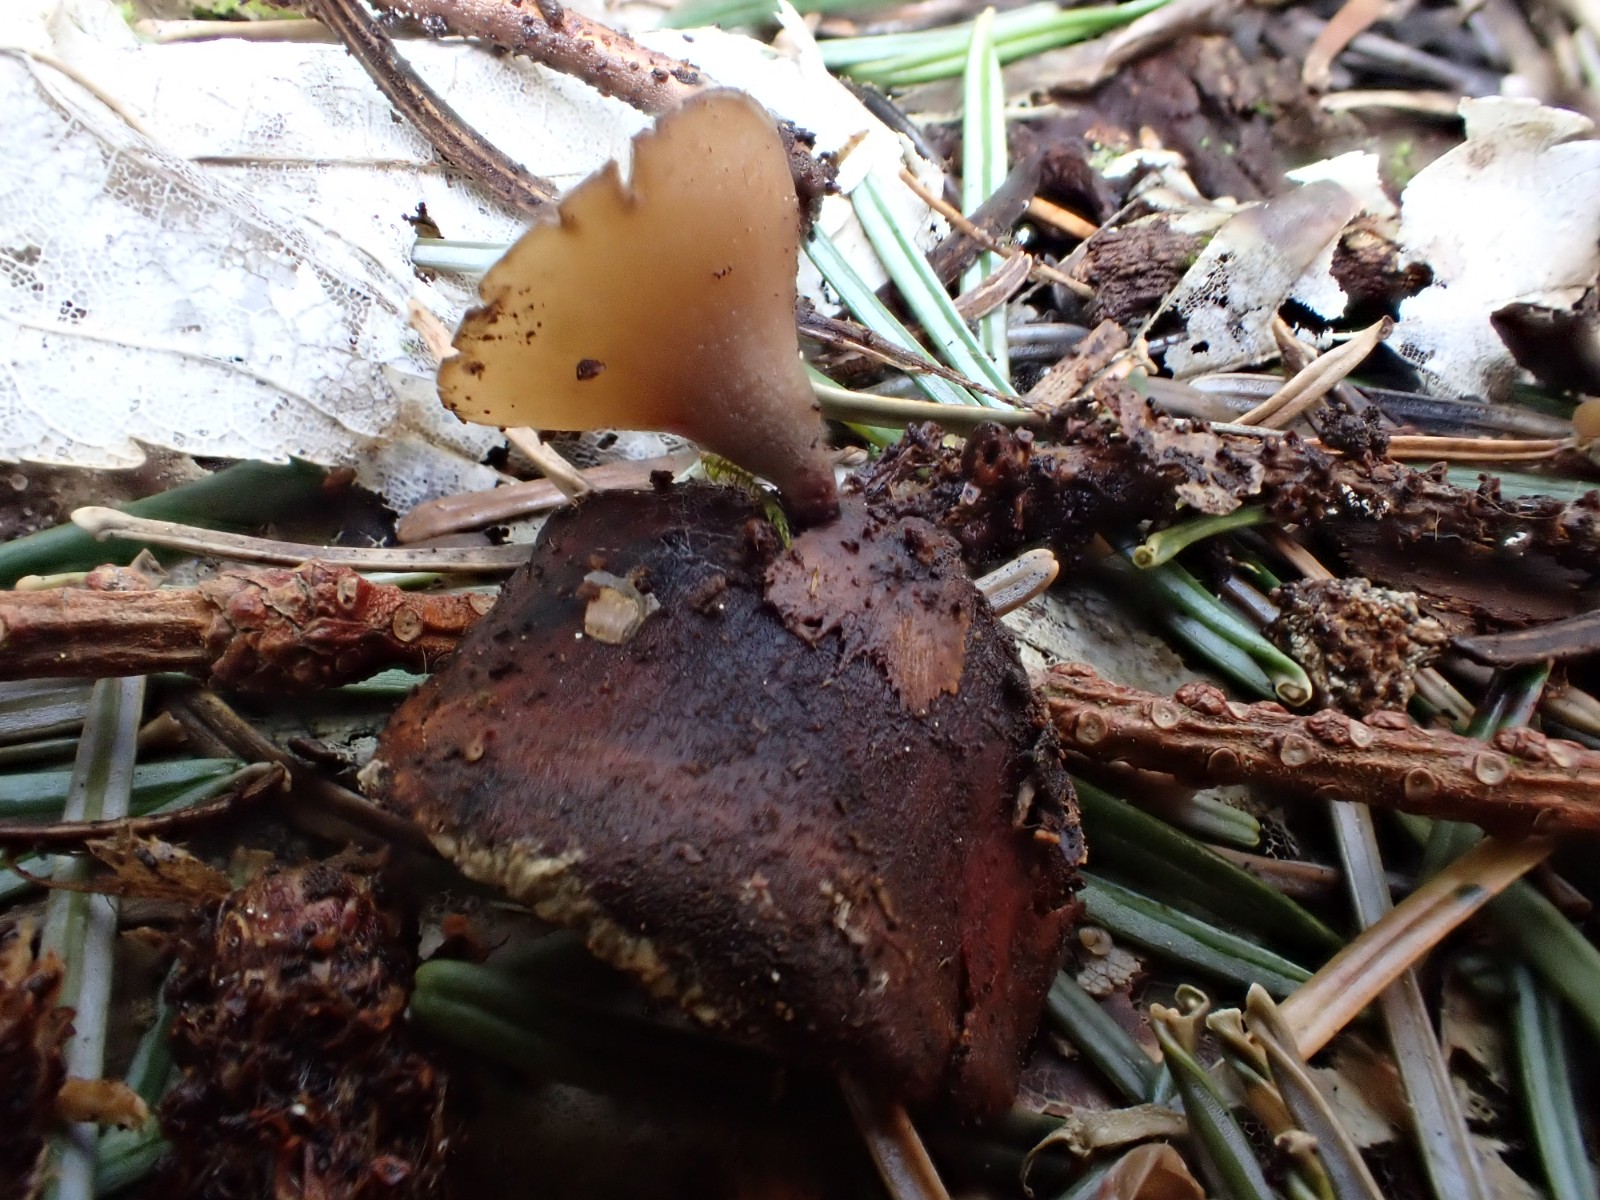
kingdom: Fungi
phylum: Ascomycota
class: Leotiomycetes
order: Helotiales
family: Sclerotiniaceae
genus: Ciboria
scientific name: Ciboria rufofusca
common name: kogleskæl-knoldskive
